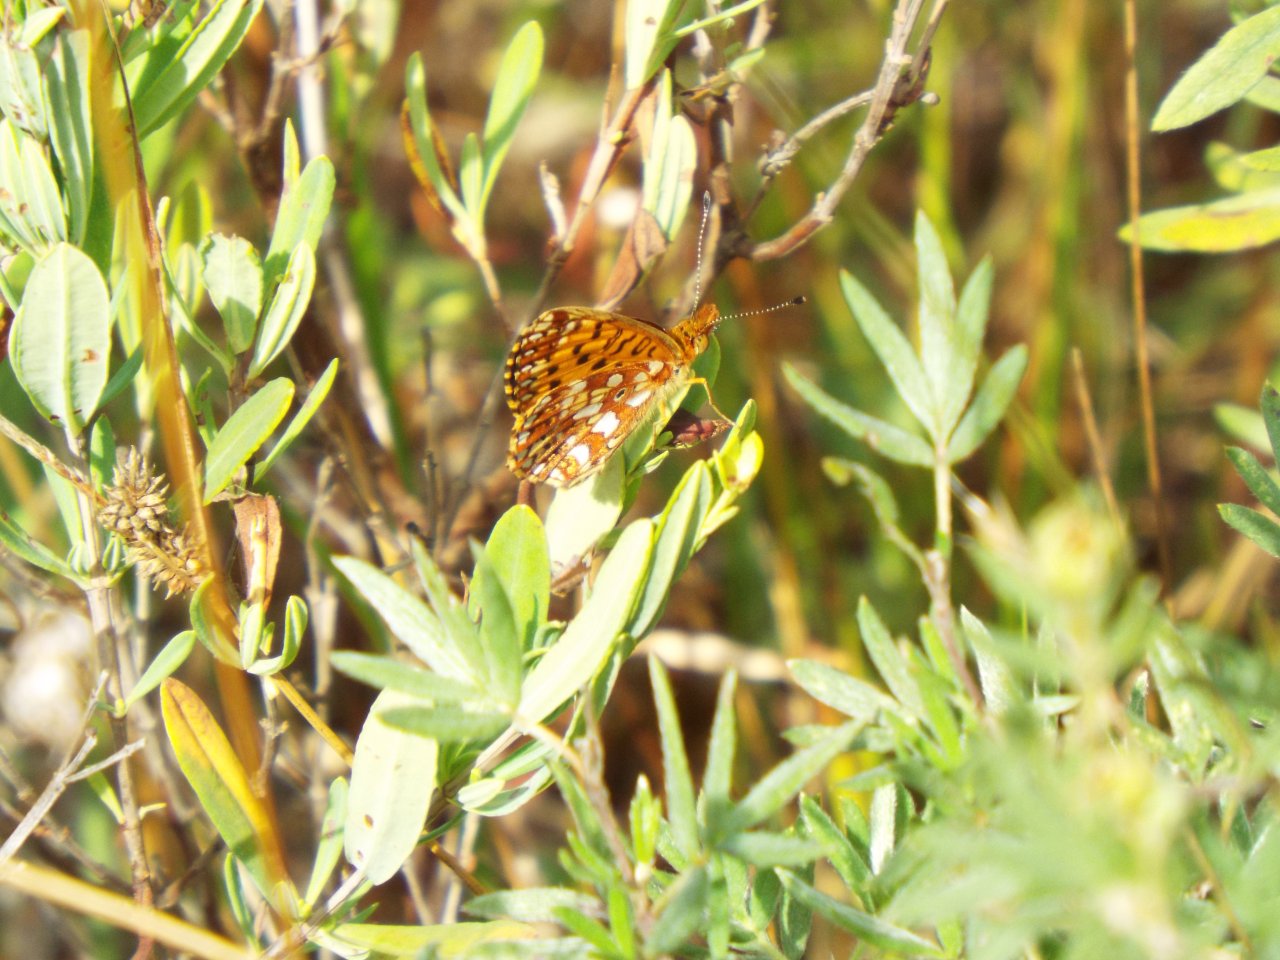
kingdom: Animalia
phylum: Arthropoda
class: Insecta
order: Lepidoptera
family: Nymphalidae
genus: Boloria
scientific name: Boloria selene
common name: Silver-bordered Fritillary
